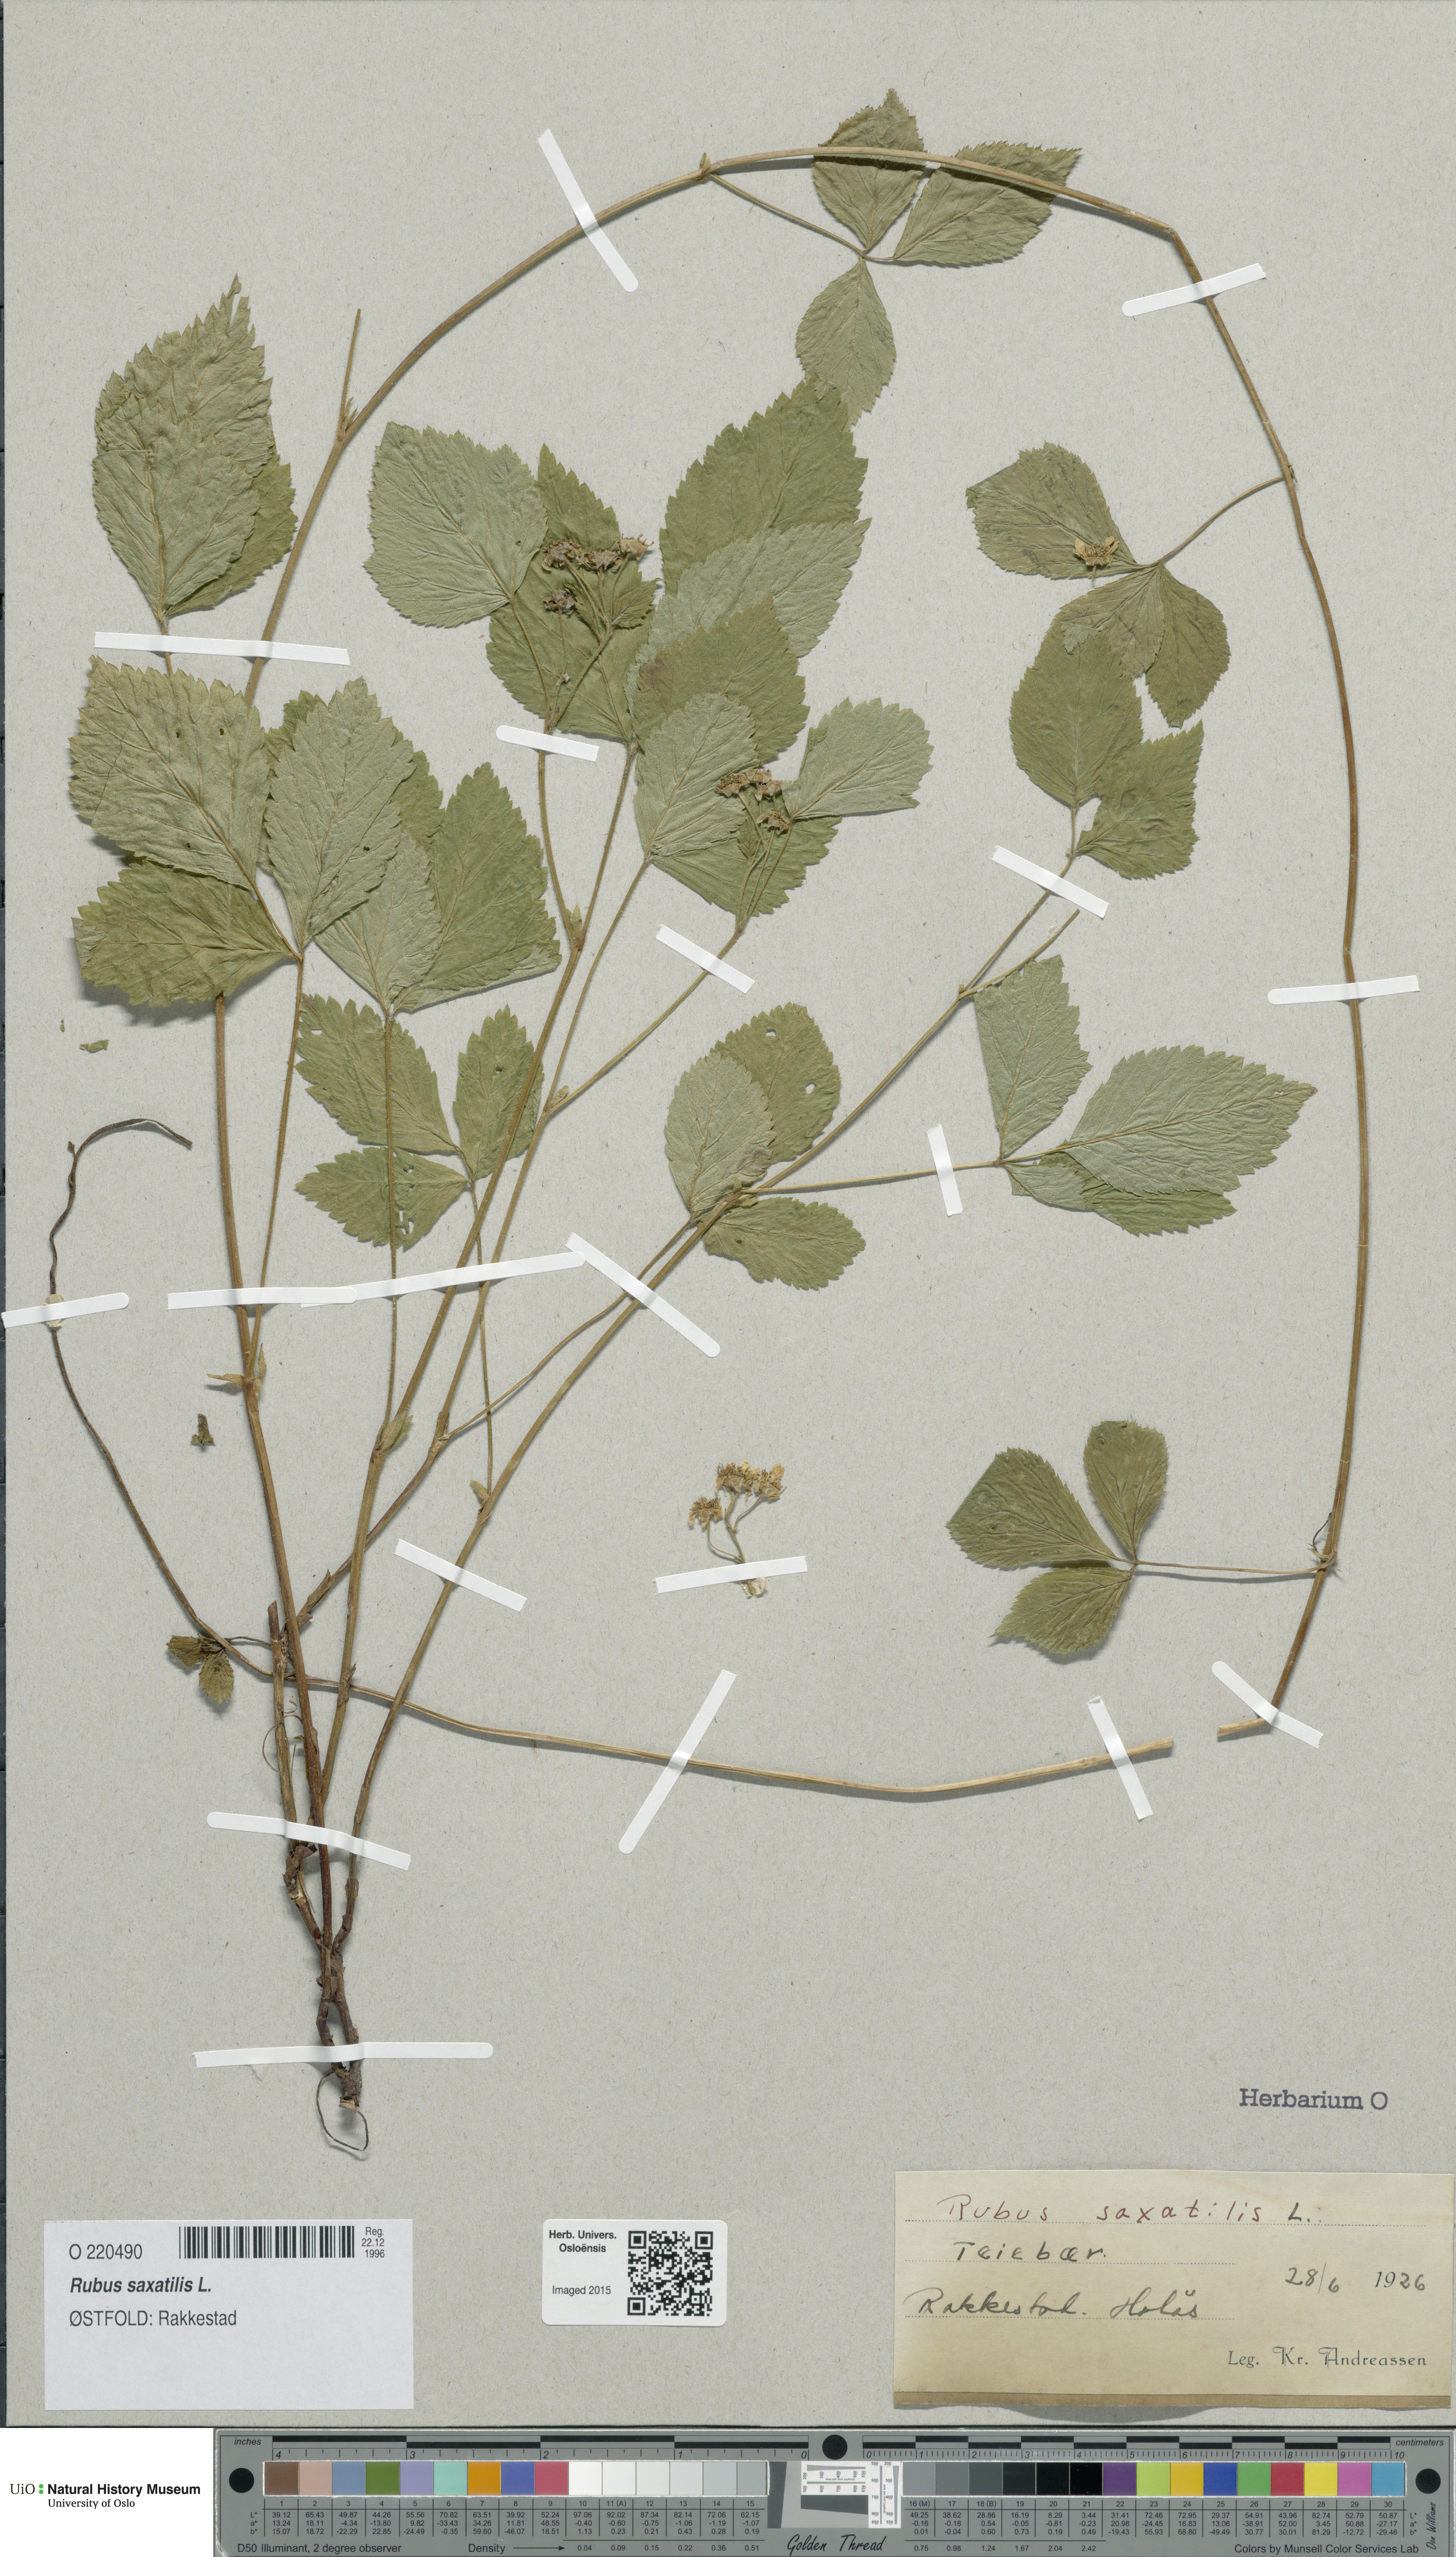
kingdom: Plantae
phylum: Tracheophyta
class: Magnoliopsida
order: Rosales
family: Rosaceae
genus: Rubus
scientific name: Rubus saxatilis
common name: Stone bramble
